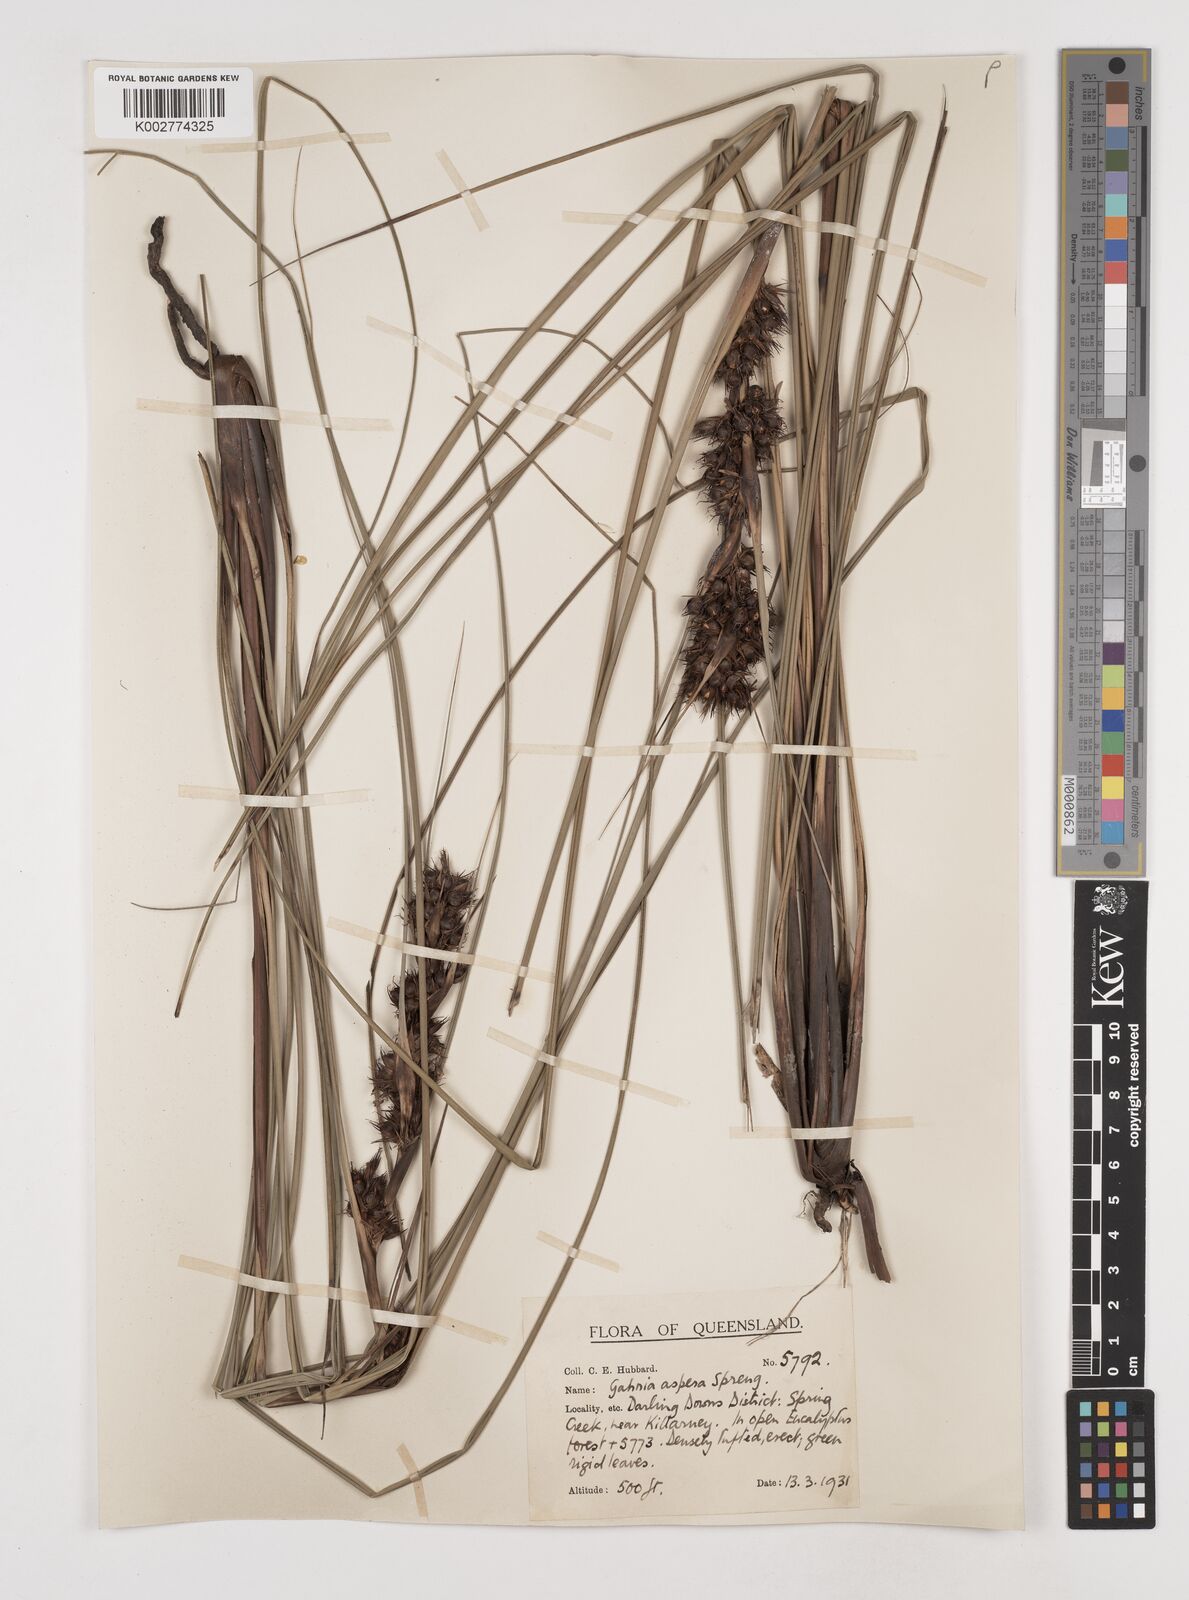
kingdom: Plantae
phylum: Tracheophyta
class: Liliopsida
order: Poales
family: Cyperaceae
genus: Gahnia
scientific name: Gahnia aspera
